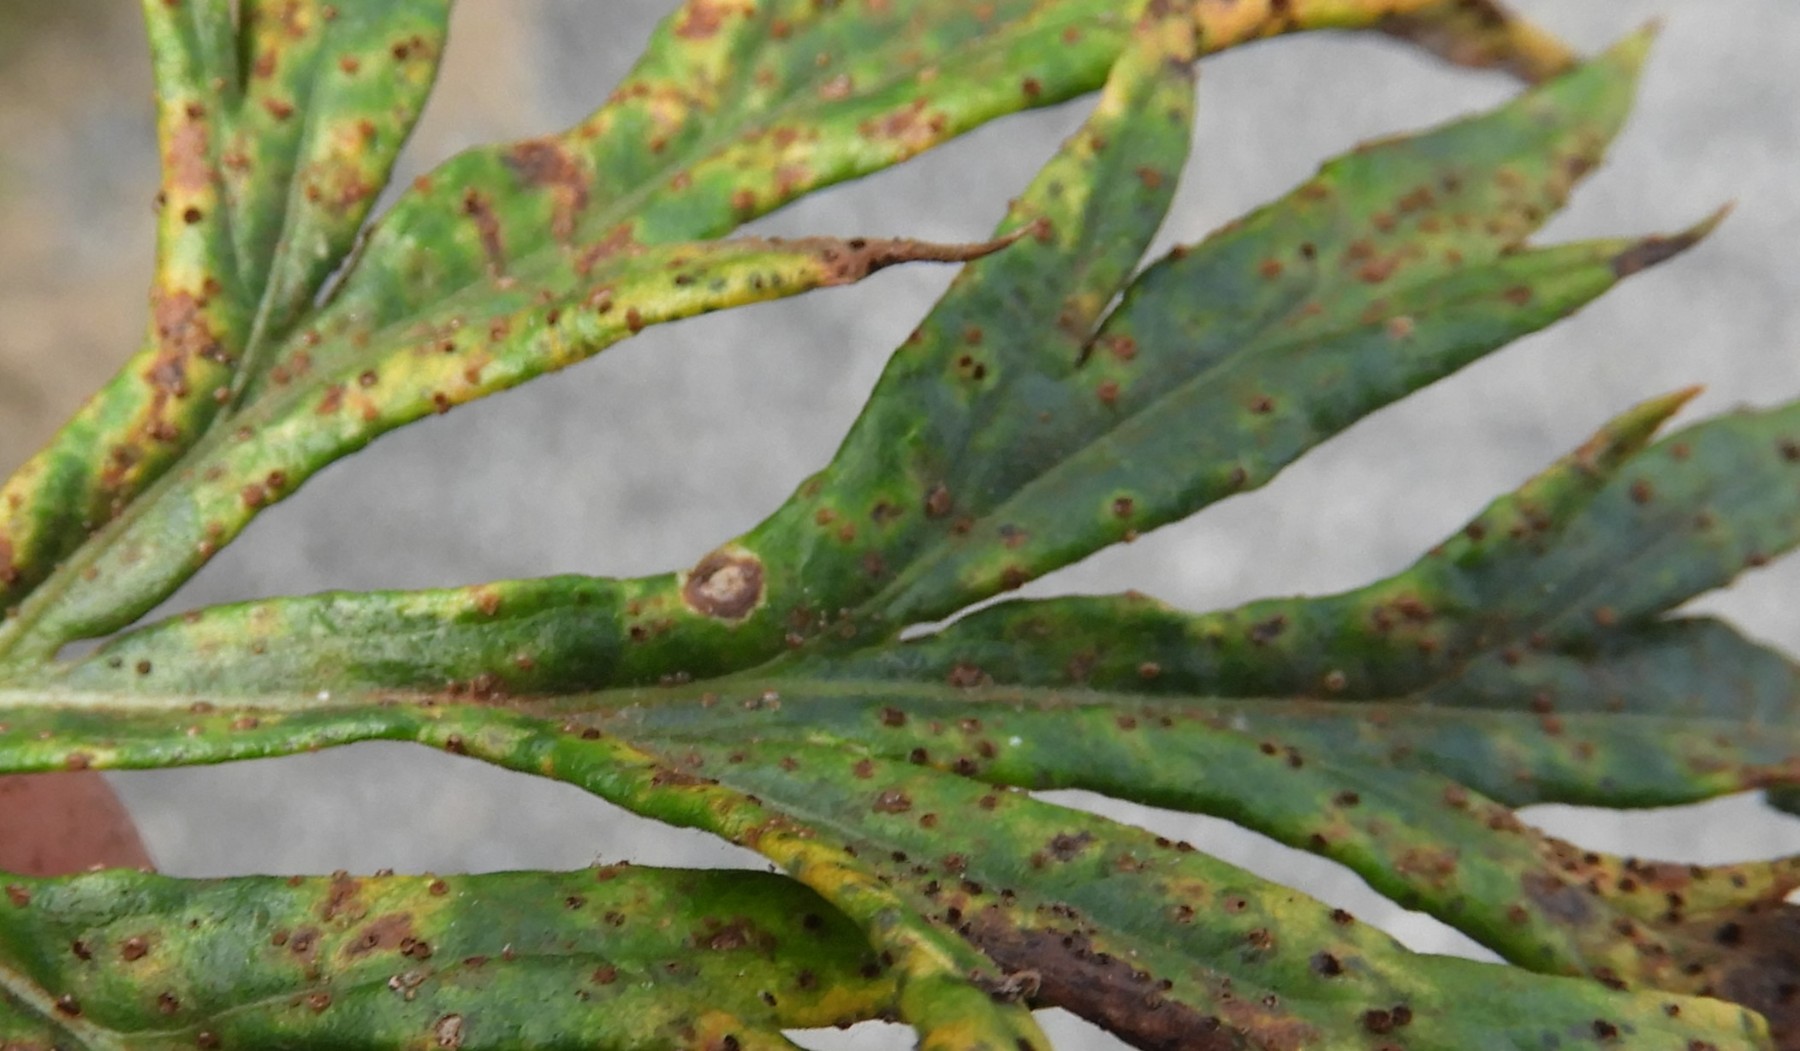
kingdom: Fungi
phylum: Basidiomycota
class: Pucciniomycetes
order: Pucciniales
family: Pucciniaceae
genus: Puccinia
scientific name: Puccinia tanaceti
